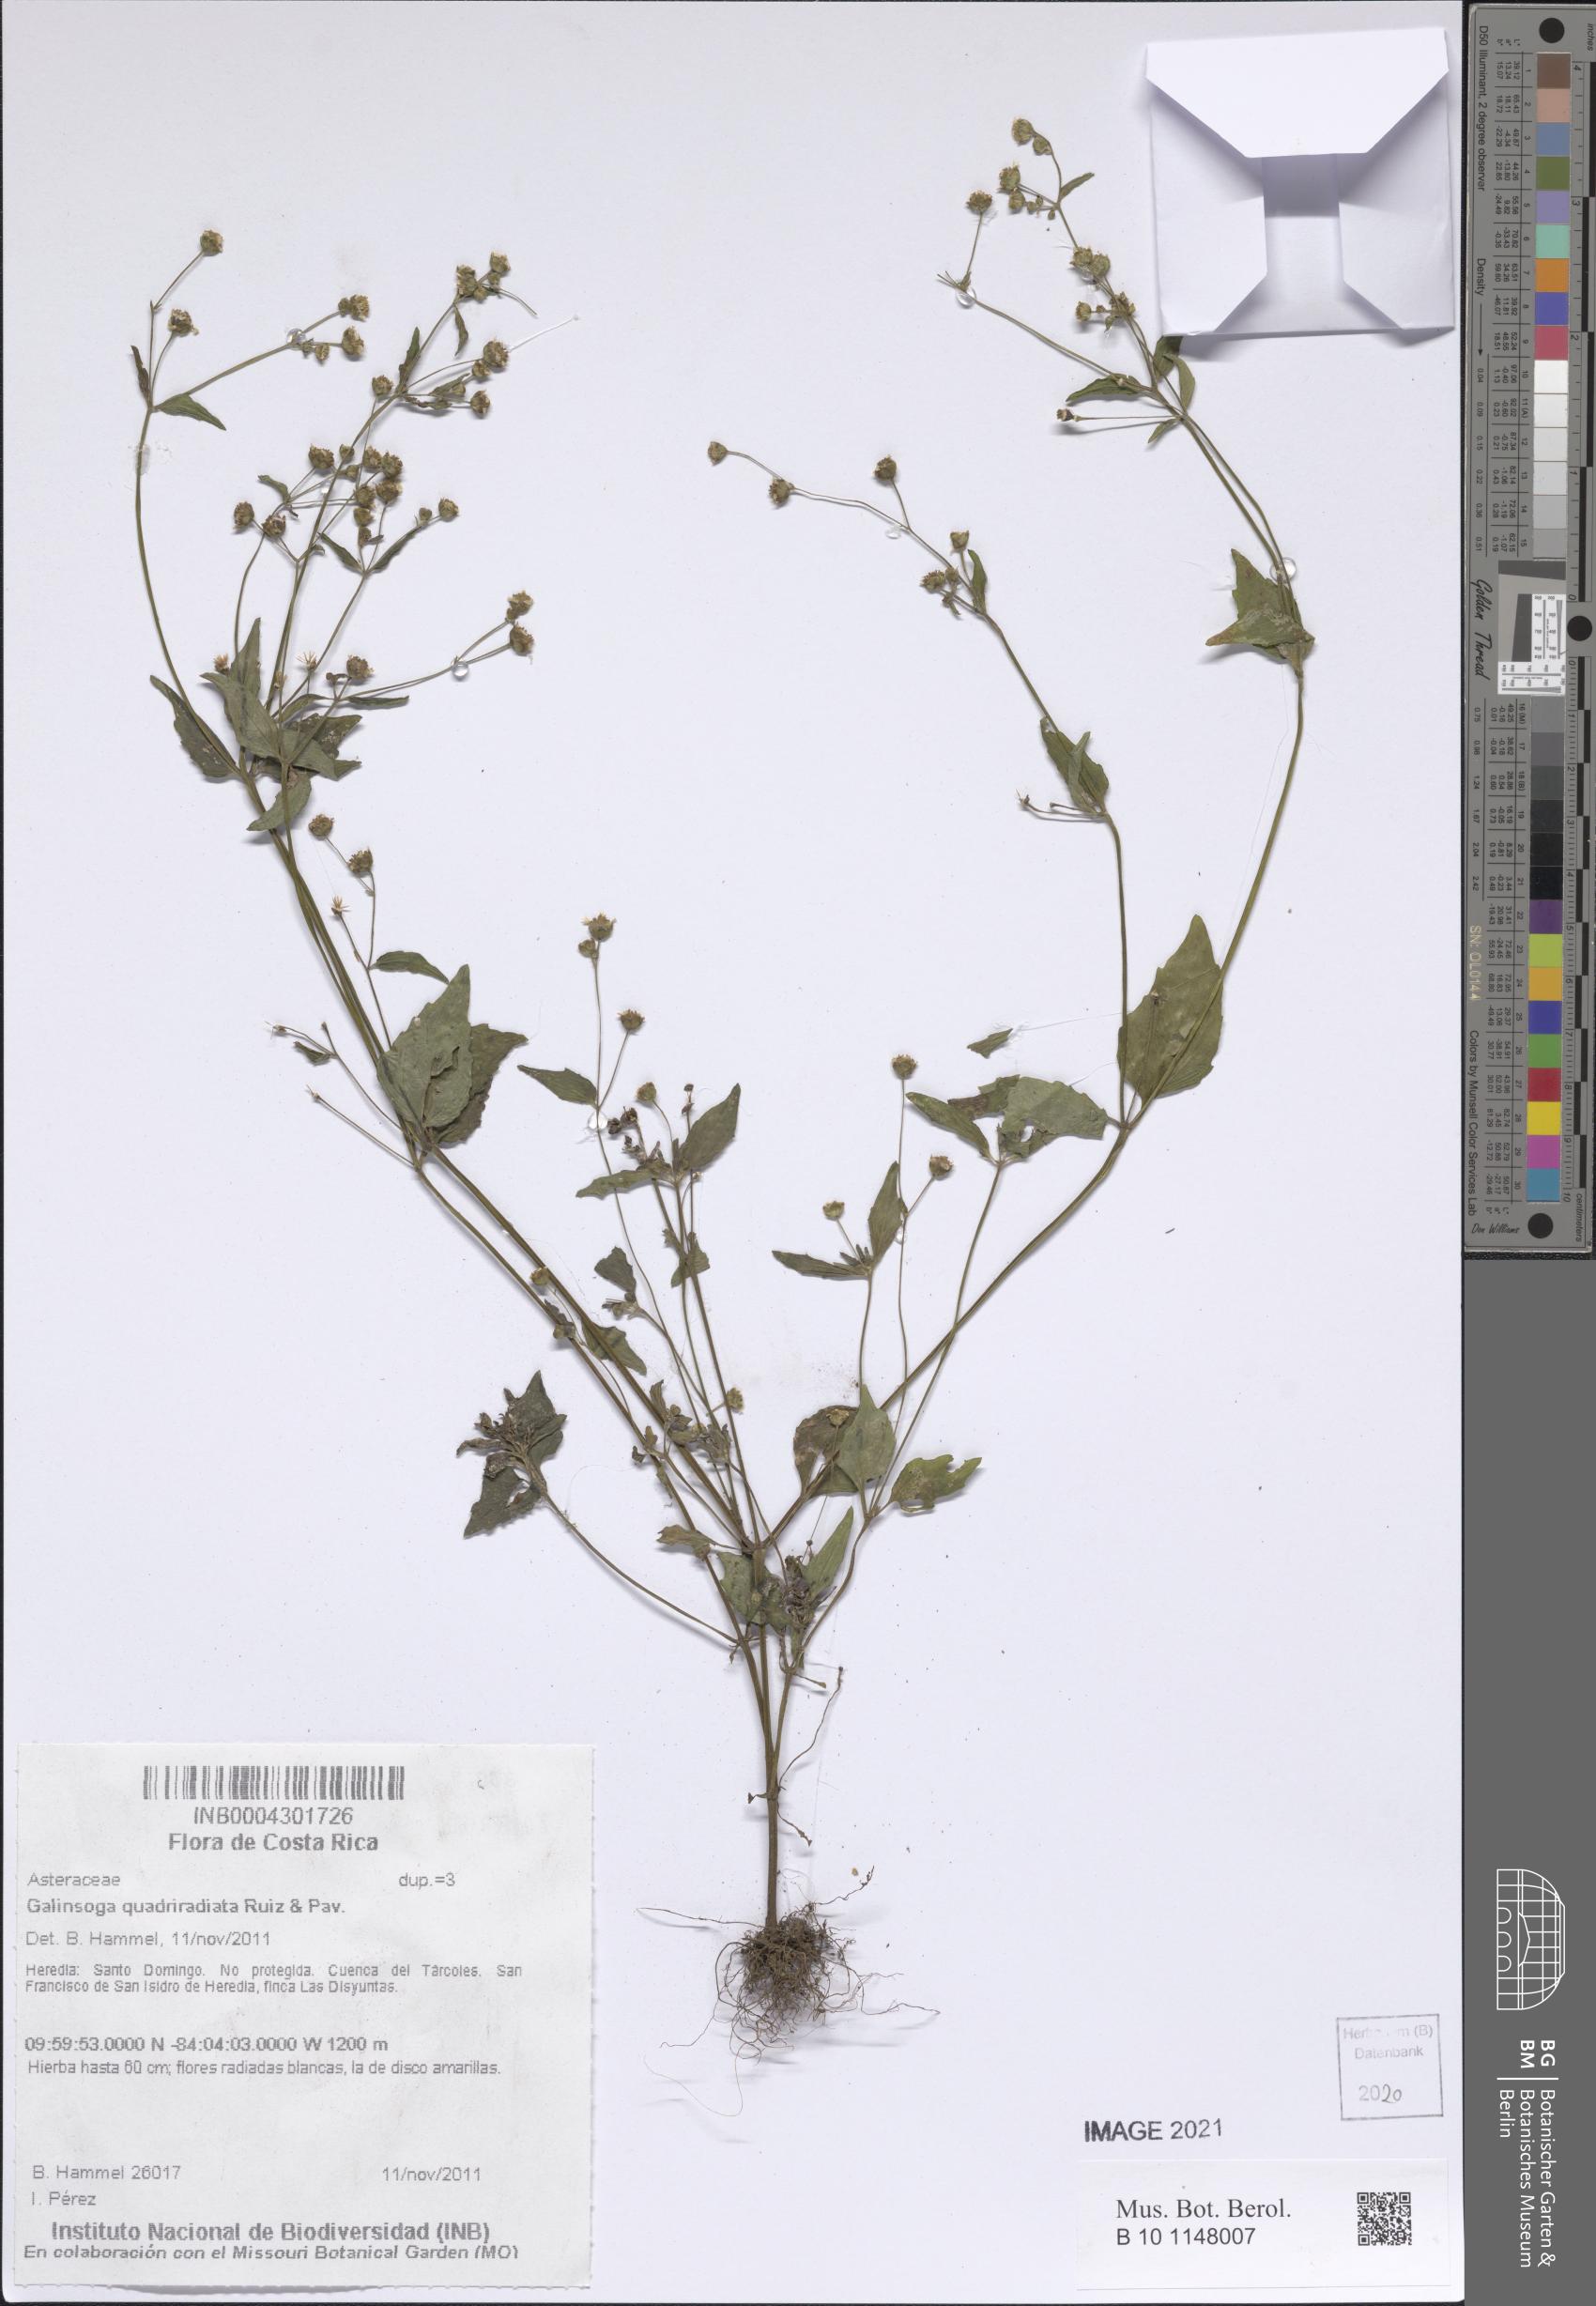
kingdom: Plantae
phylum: Tracheophyta
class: Magnoliopsida
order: Asterales
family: Asteraceae
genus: Galinsoga
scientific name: Galinsoga quadriradiata
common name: Shaggy soldier
